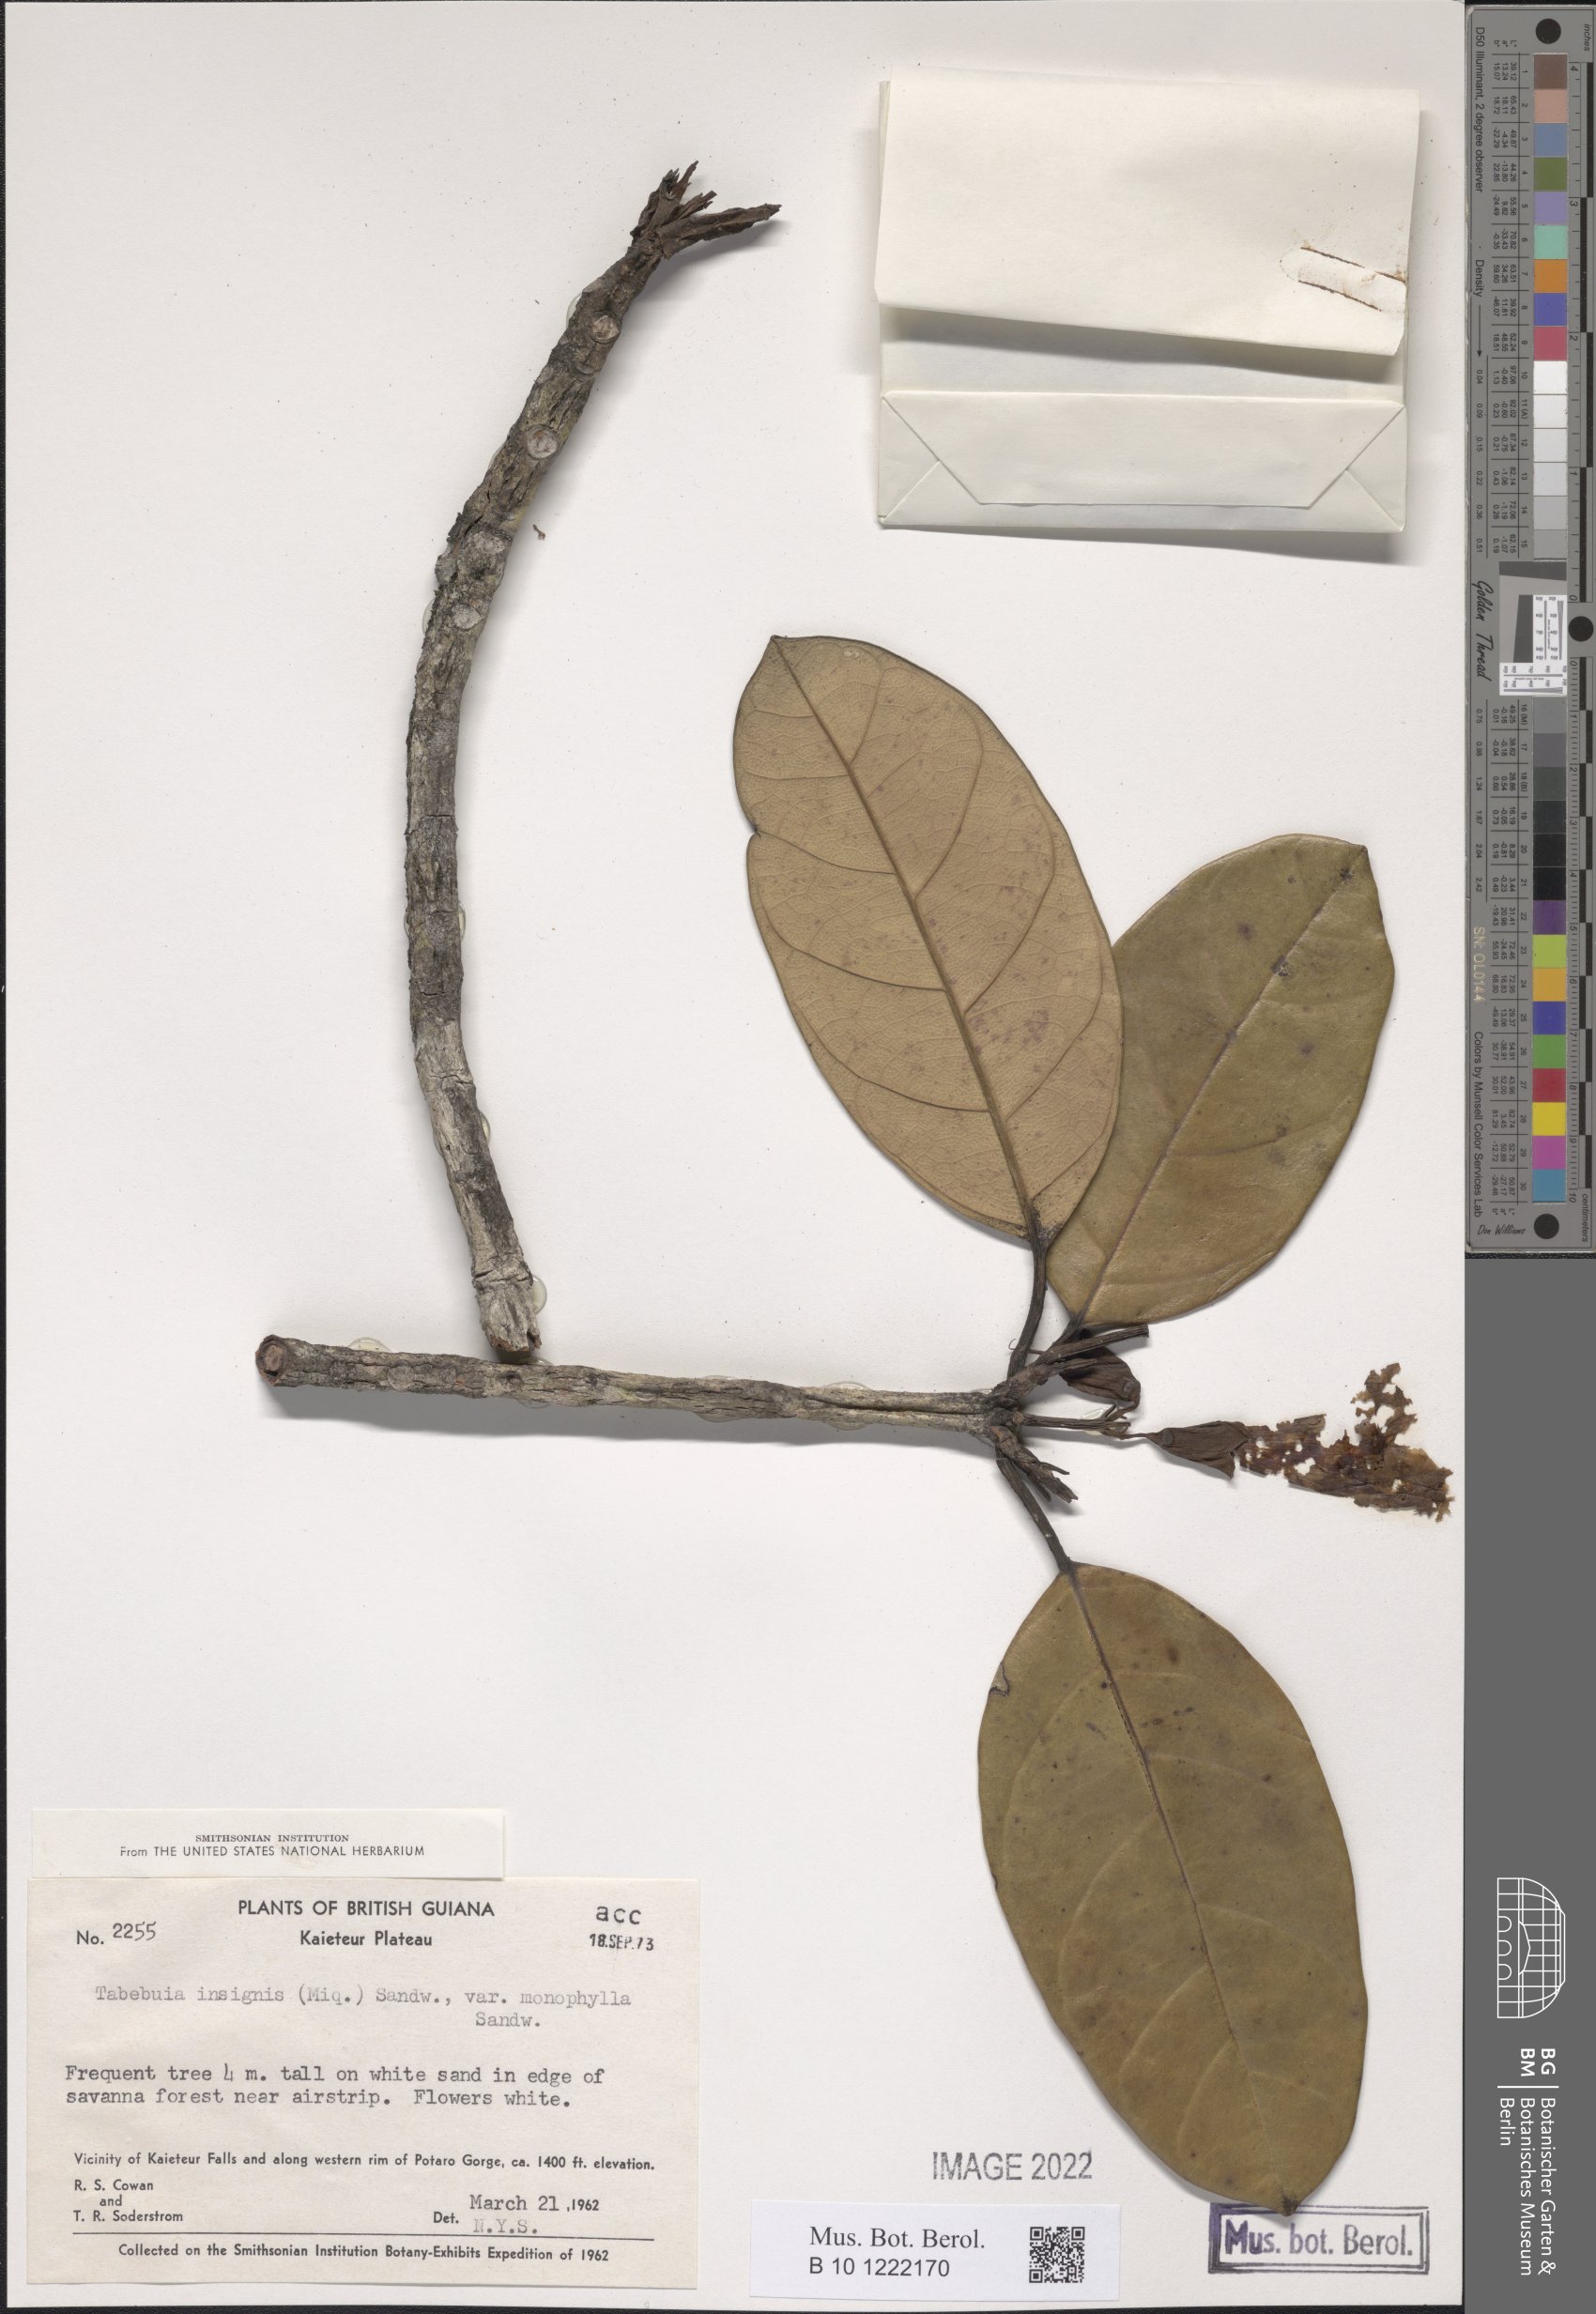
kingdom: Plantae
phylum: Tracheophyta
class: Magnoliopsida
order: Lamiales
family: Bignoniaceae
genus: Tabebuia
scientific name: Tabebuia insignis
